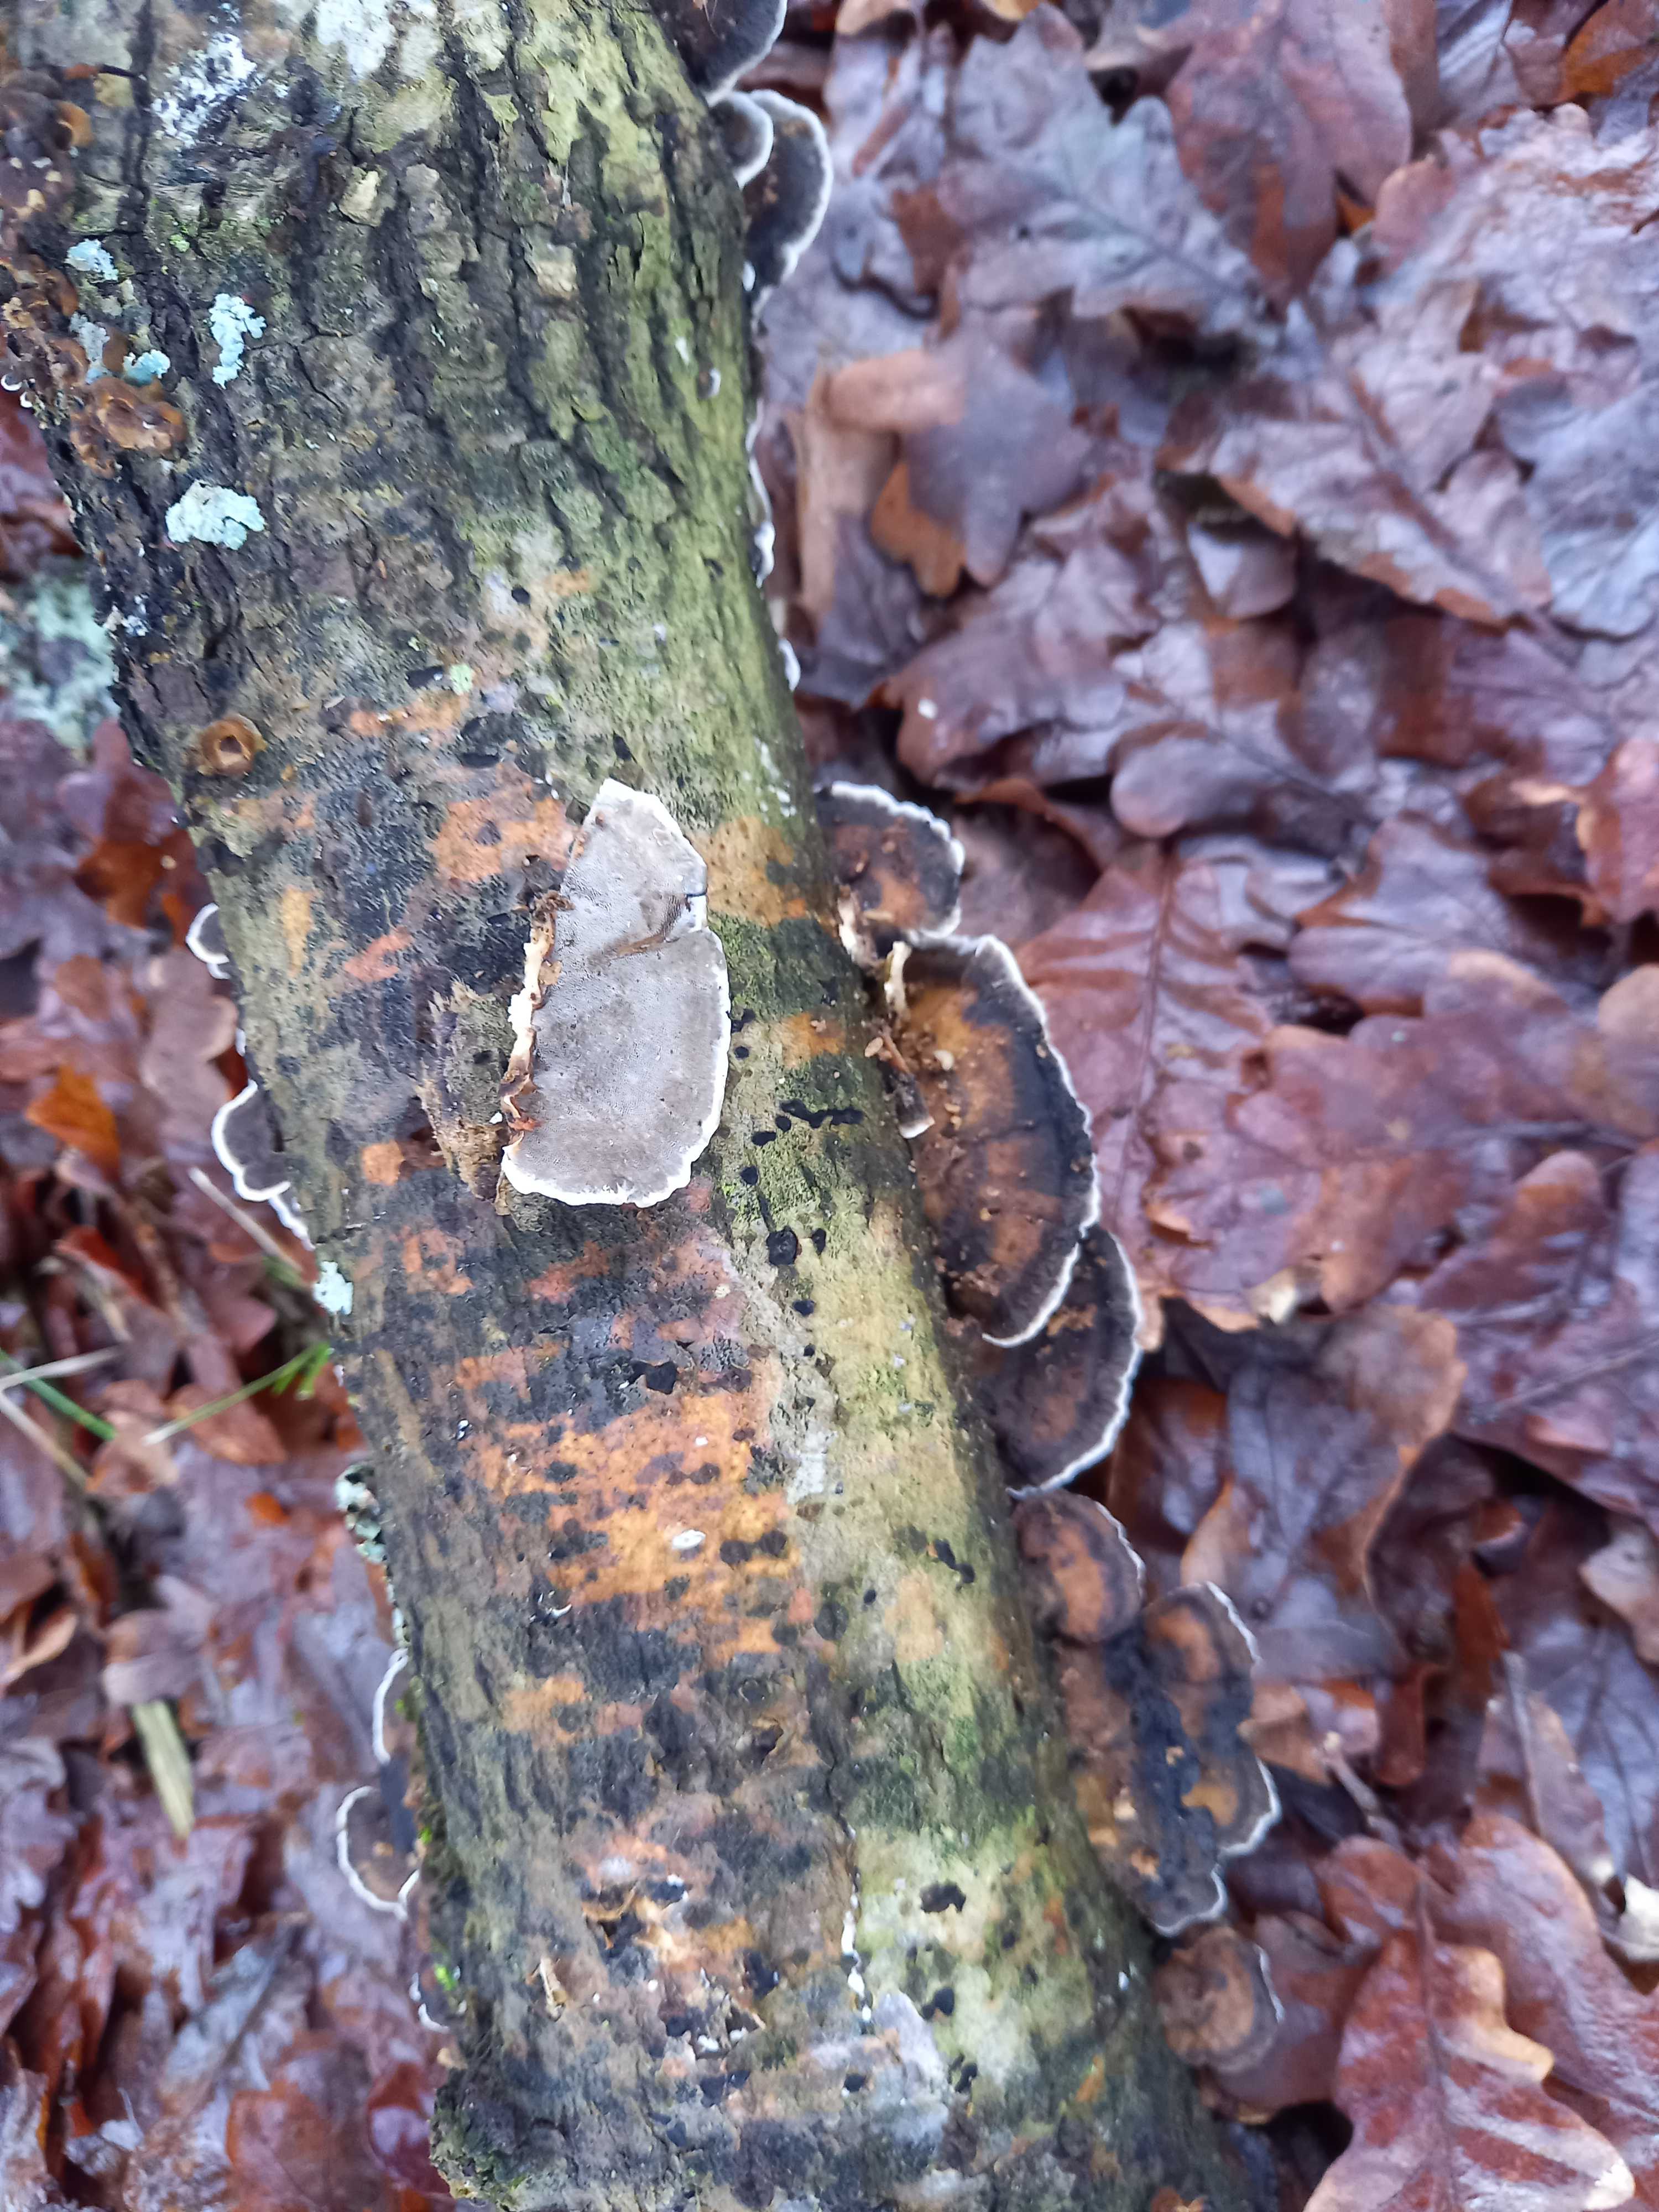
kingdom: Fungi
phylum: Basidiomycota
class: Agaricomycetes
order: Polyporales
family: Phanerochaetaceae
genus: Bjerkandera
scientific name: Bjerkandera adusta
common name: sveden sodporesvamp
